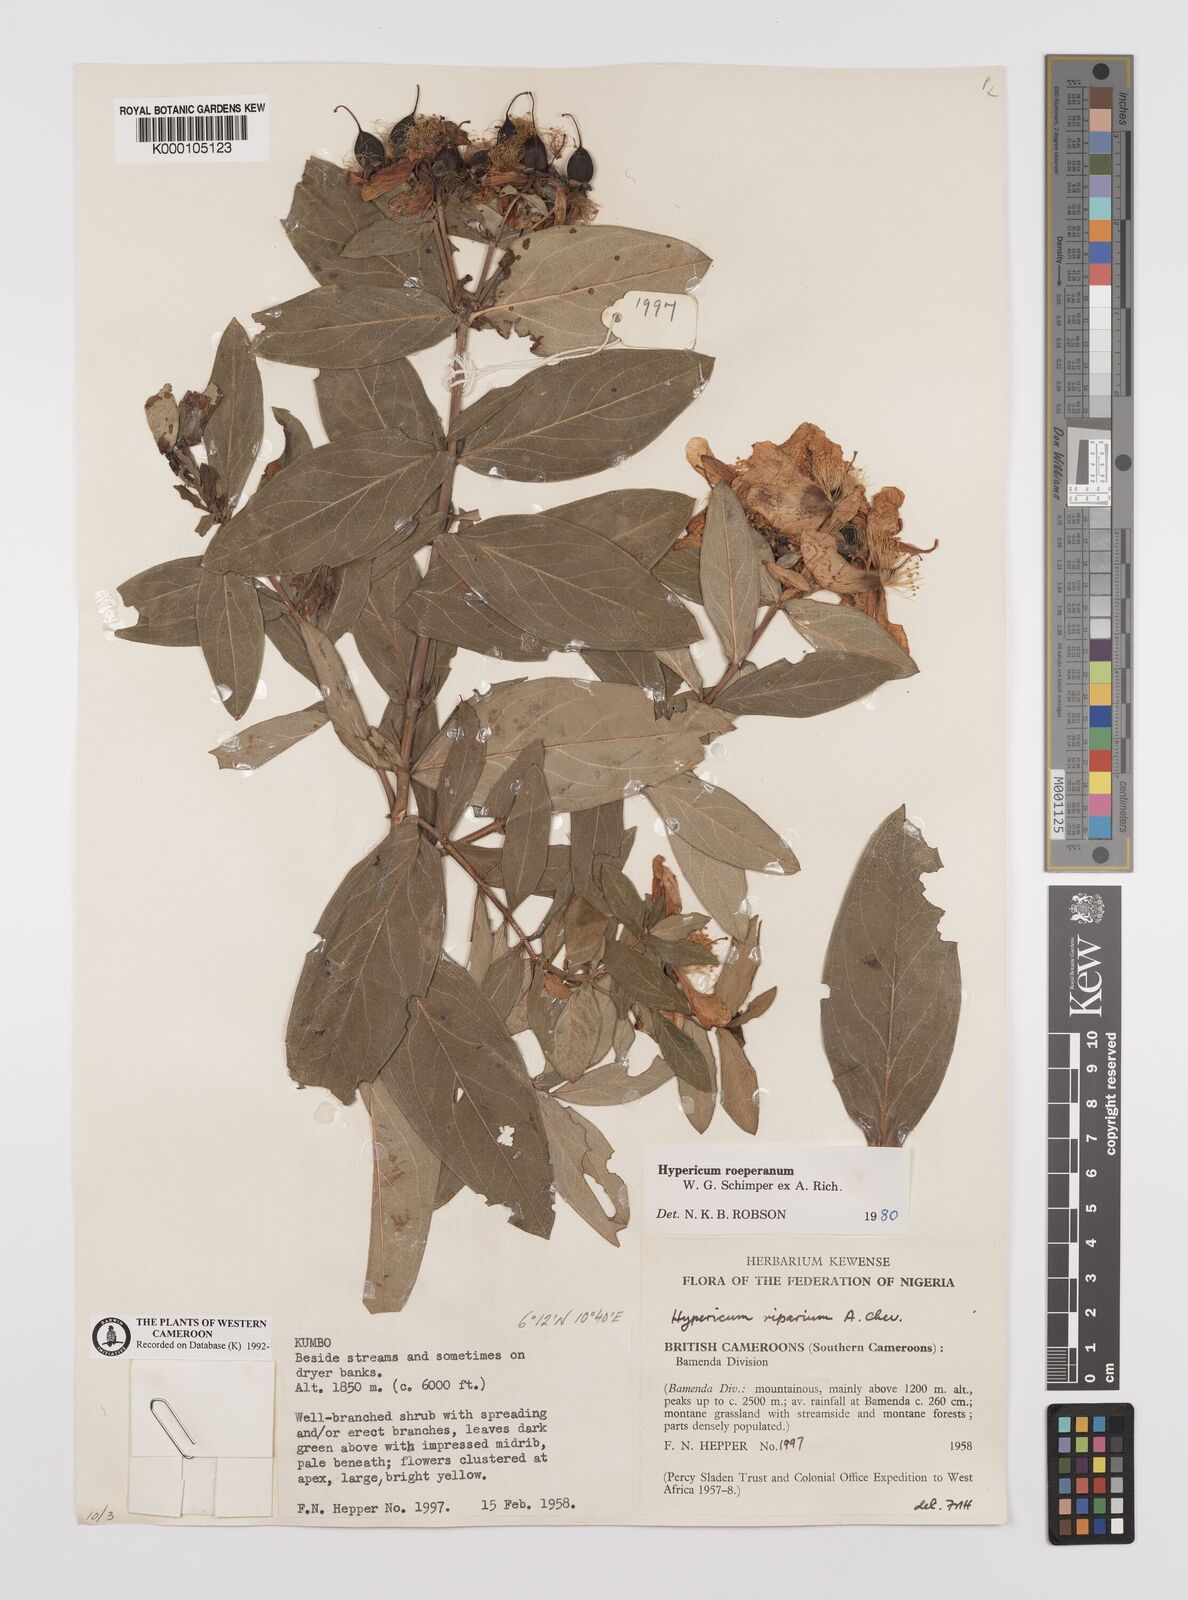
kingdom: Plantae
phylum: Tracheophyta
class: Magnoliopsida
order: Malpighiales
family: Hypericaceae
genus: Hypericum
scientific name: Hypericum
